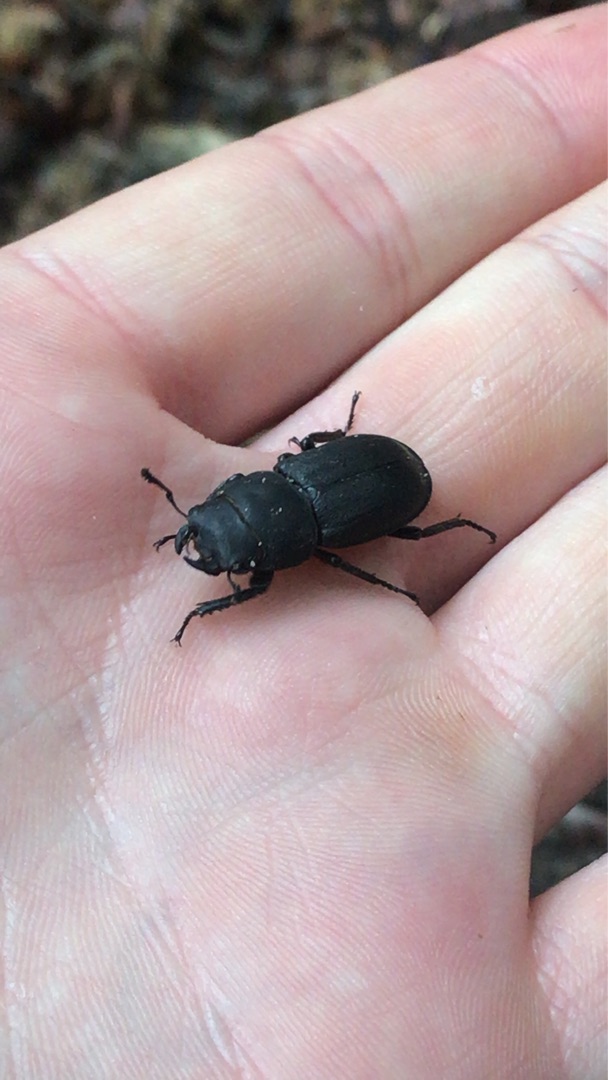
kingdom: Animalia
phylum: Arthropoda
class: Insecta
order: Coleoptera
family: Lucanidae
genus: Dorcus
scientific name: Dorcus parallelipipedus
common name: Bøghjort
